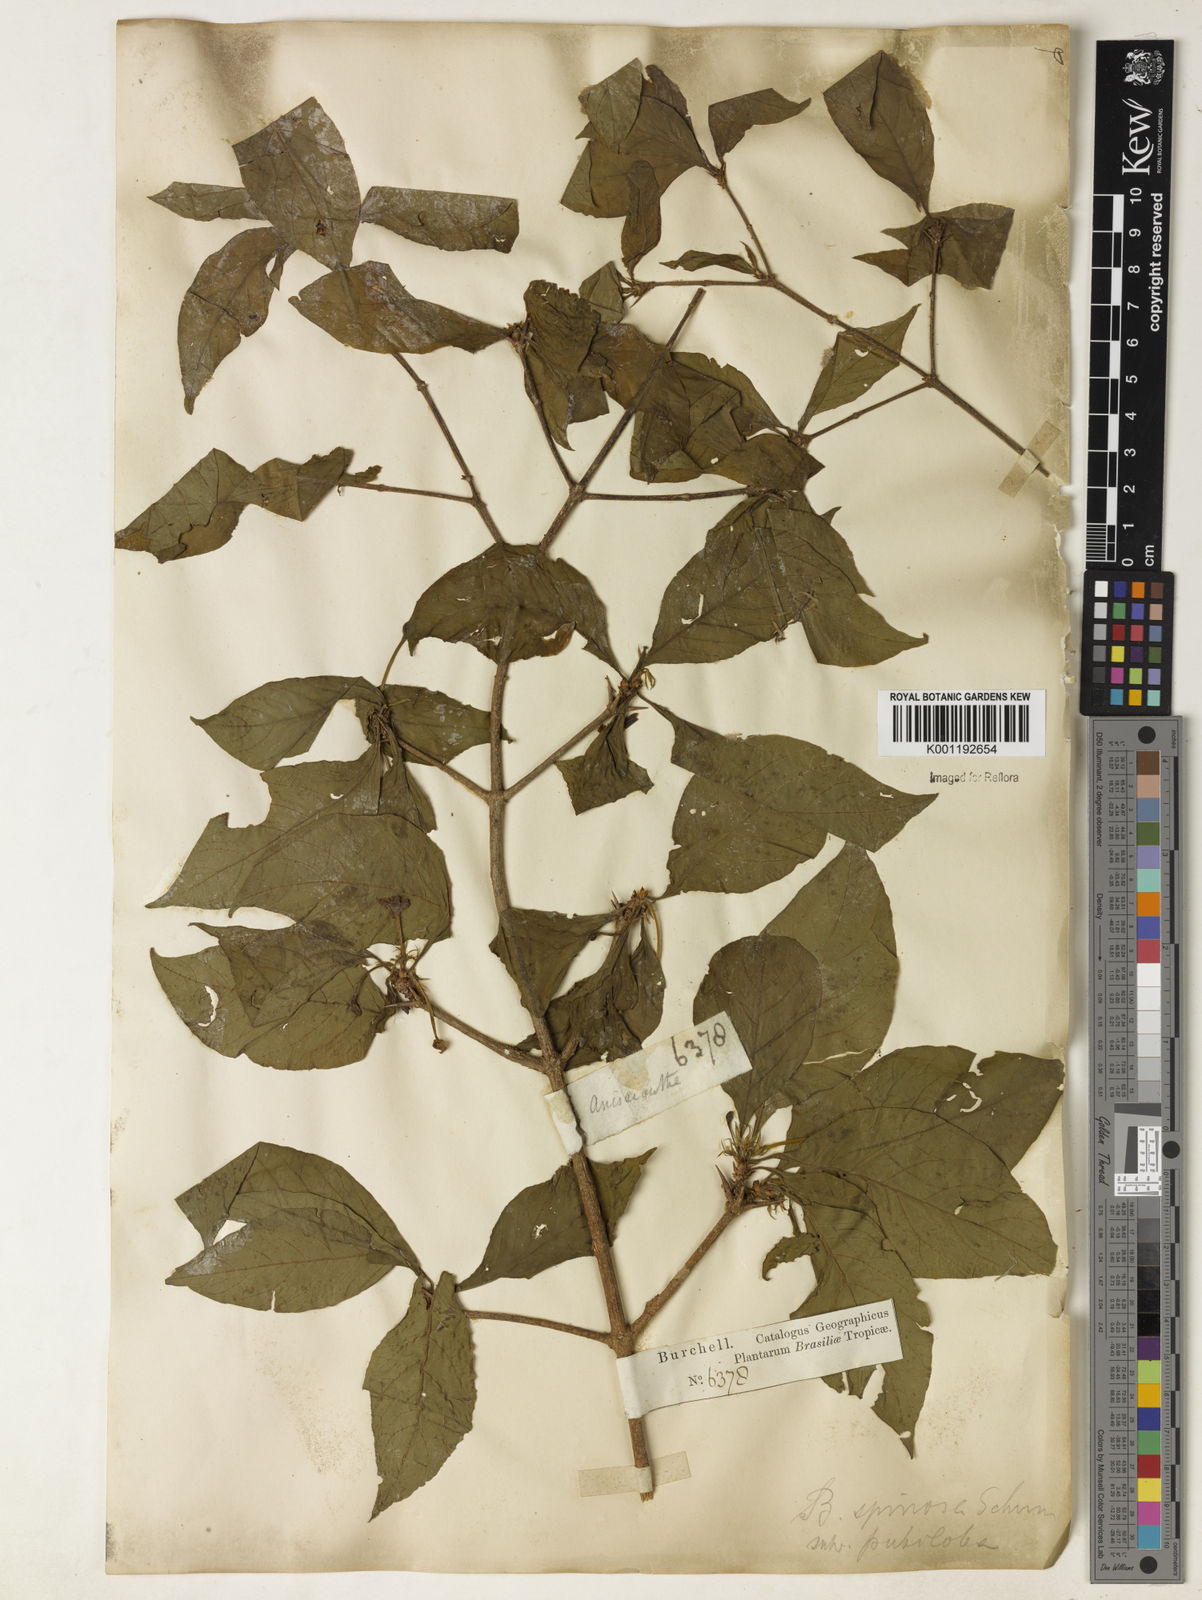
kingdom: Plantae
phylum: Tracheophyta
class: Magnoliopsida
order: Gentianales
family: Rubiaceae
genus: Randia
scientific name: Randia armata
